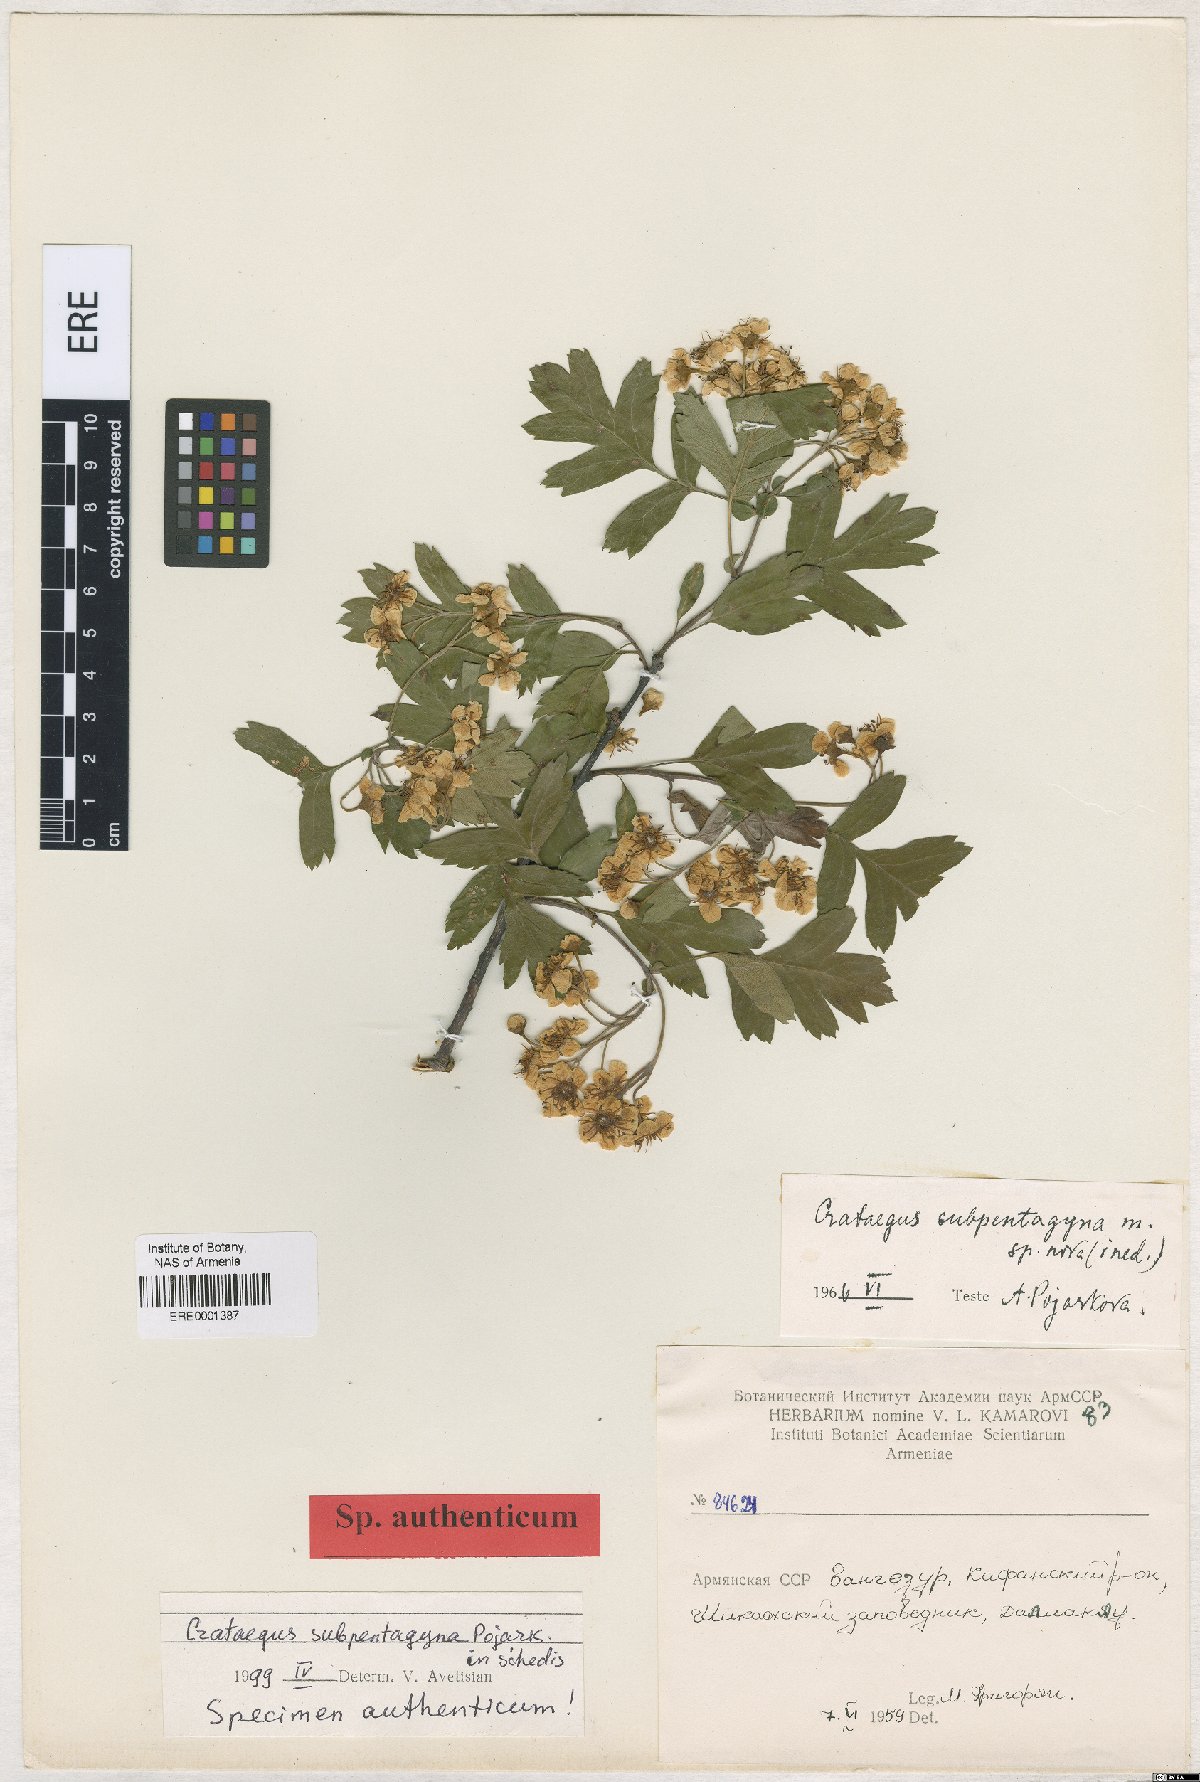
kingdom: Plantae
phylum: Tracheophyta
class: Magnoliopsida
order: Rosales
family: Rosaceae
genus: Crataegus
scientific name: Crataegus
